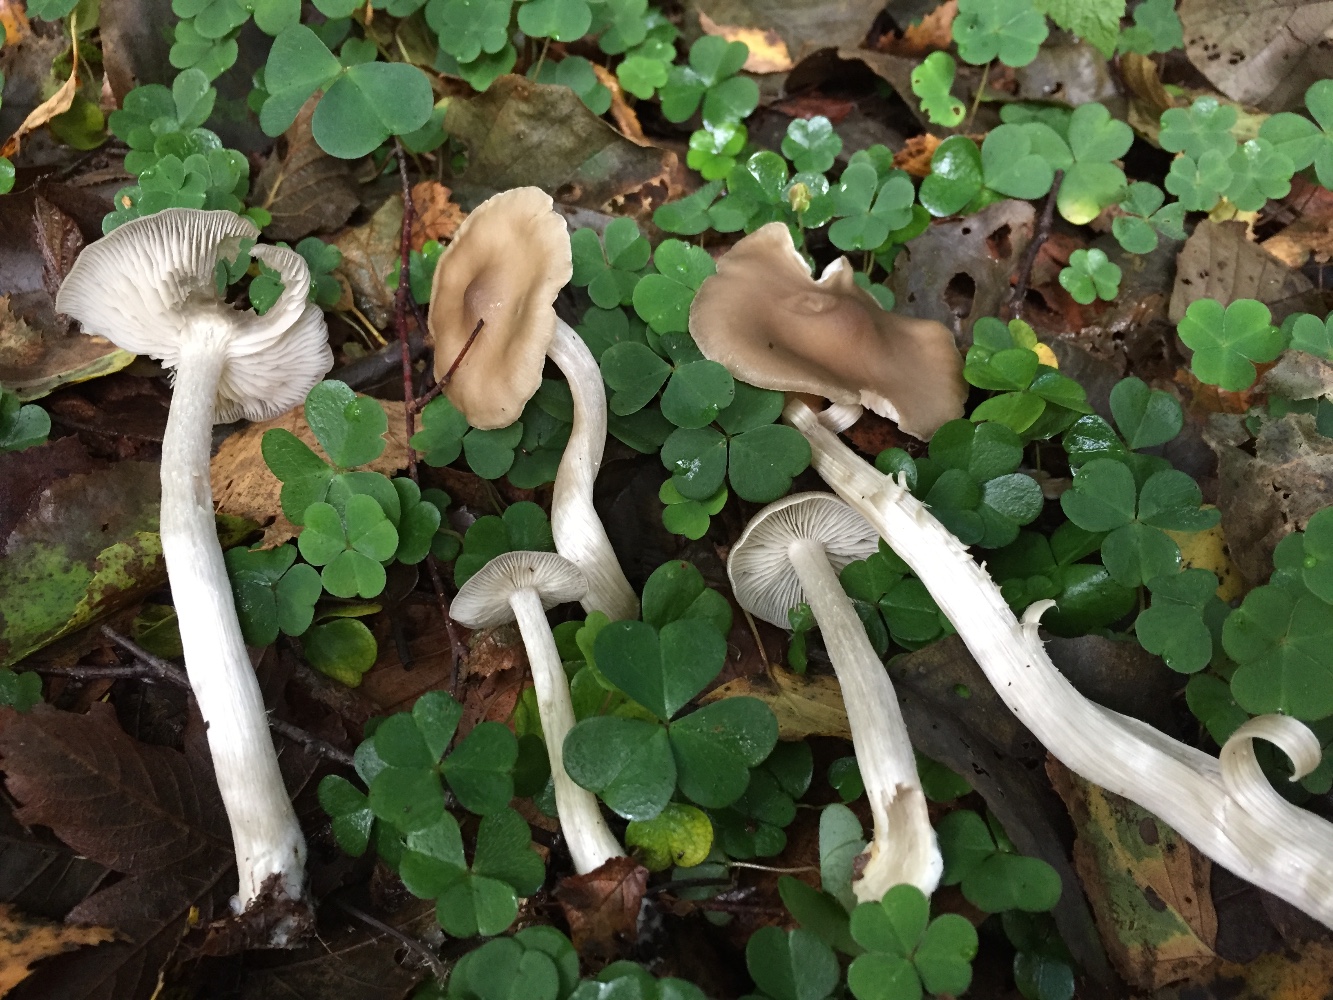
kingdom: Fungi
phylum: Basidiomycota
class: Agaricomycetes
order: Agaricales
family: Entolomataceae
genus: Entoloma
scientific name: Entoloma
